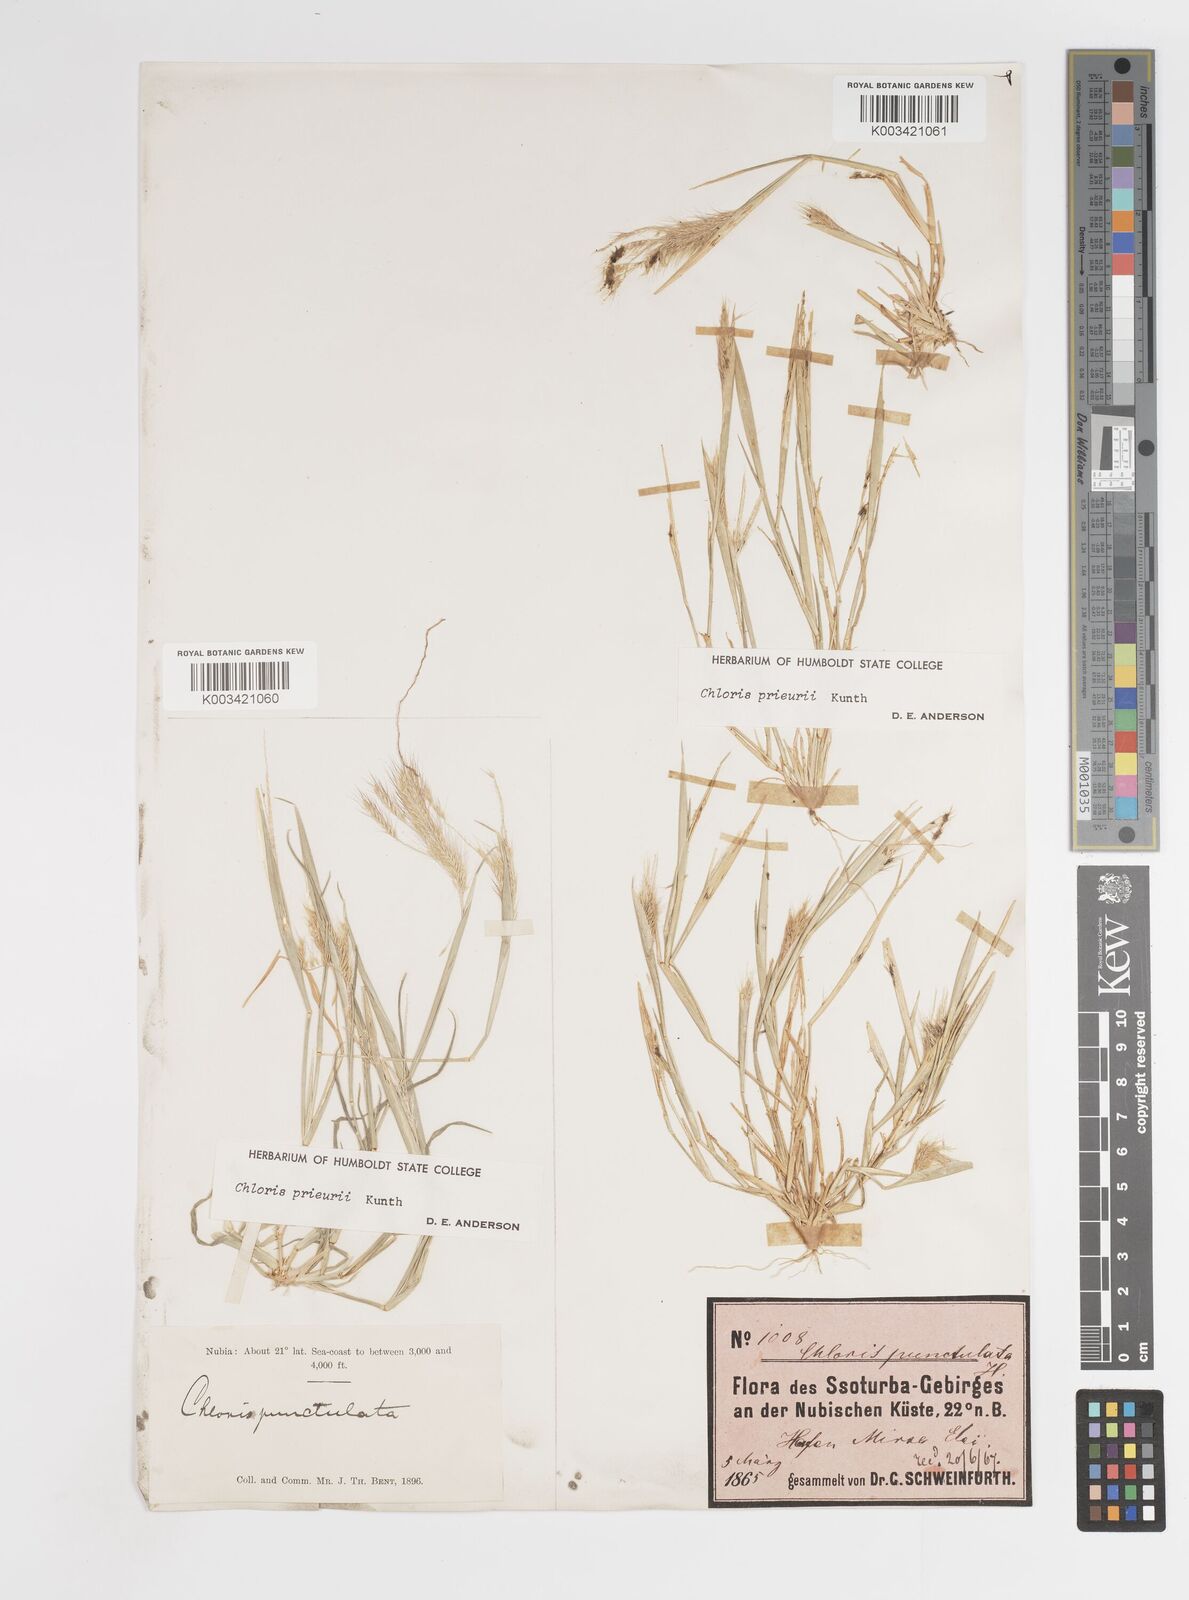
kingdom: Plantae
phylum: Tracheophyta
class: Liliopsida
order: Poales
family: Poaceae
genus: Enteropogon
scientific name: Enteropogon prieurii
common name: Prieur's umbrellagrass
